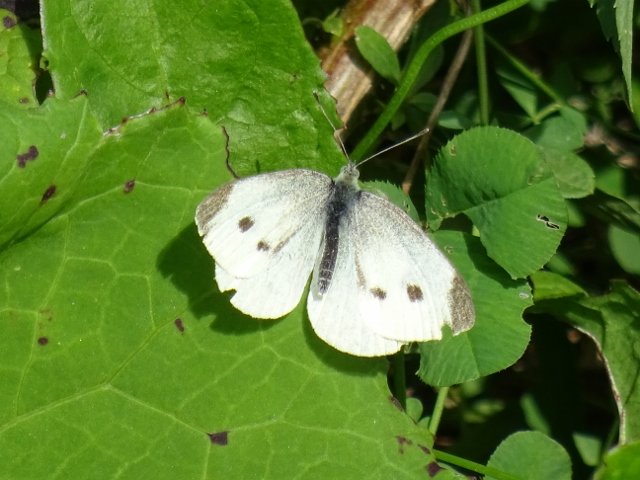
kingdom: Animalia
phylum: Arthropoda
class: Insecta
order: Lepidoptera
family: Pieridae
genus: Pieris
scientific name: Pieris rapae
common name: Cabbage White
